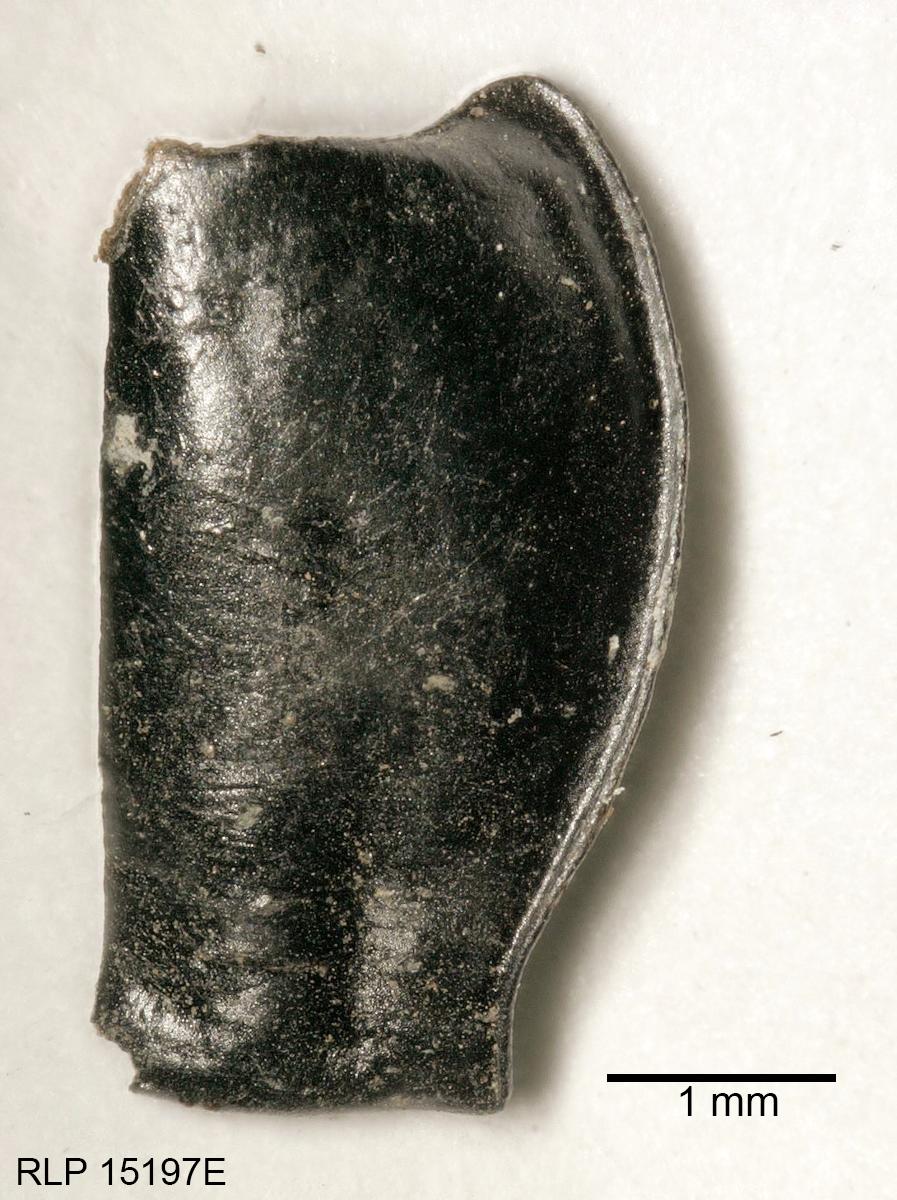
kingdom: Animalia
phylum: Arthropoda
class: Insecta
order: Coleoptera
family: Carabidae
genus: Pterostichus
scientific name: Pterostichus illustris
